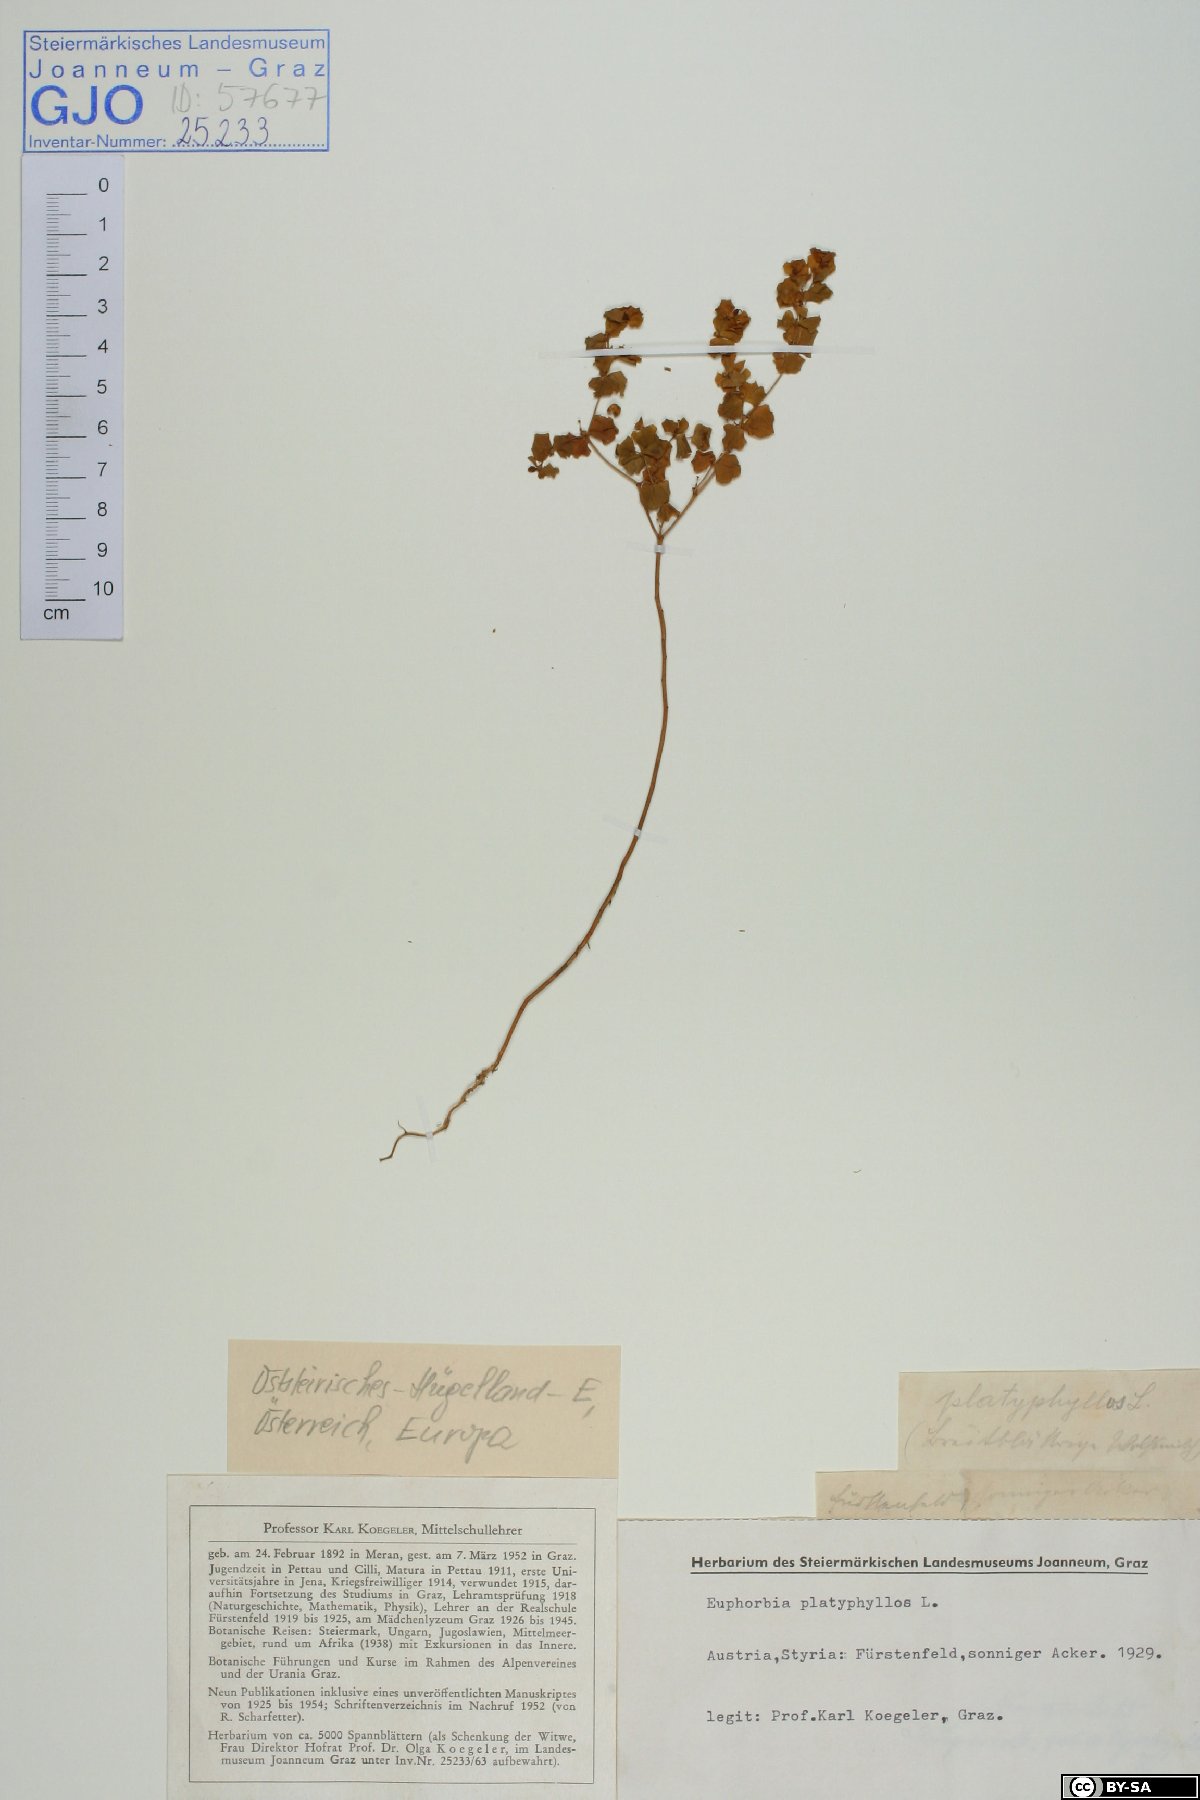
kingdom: Plantae
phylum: Tracheophyta
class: Magnoliopsida
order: Malpighiales
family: Euphorbiaceae
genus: Euphorbia
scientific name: Euphorbia platyphyllos
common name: Broad-leaved spurge
